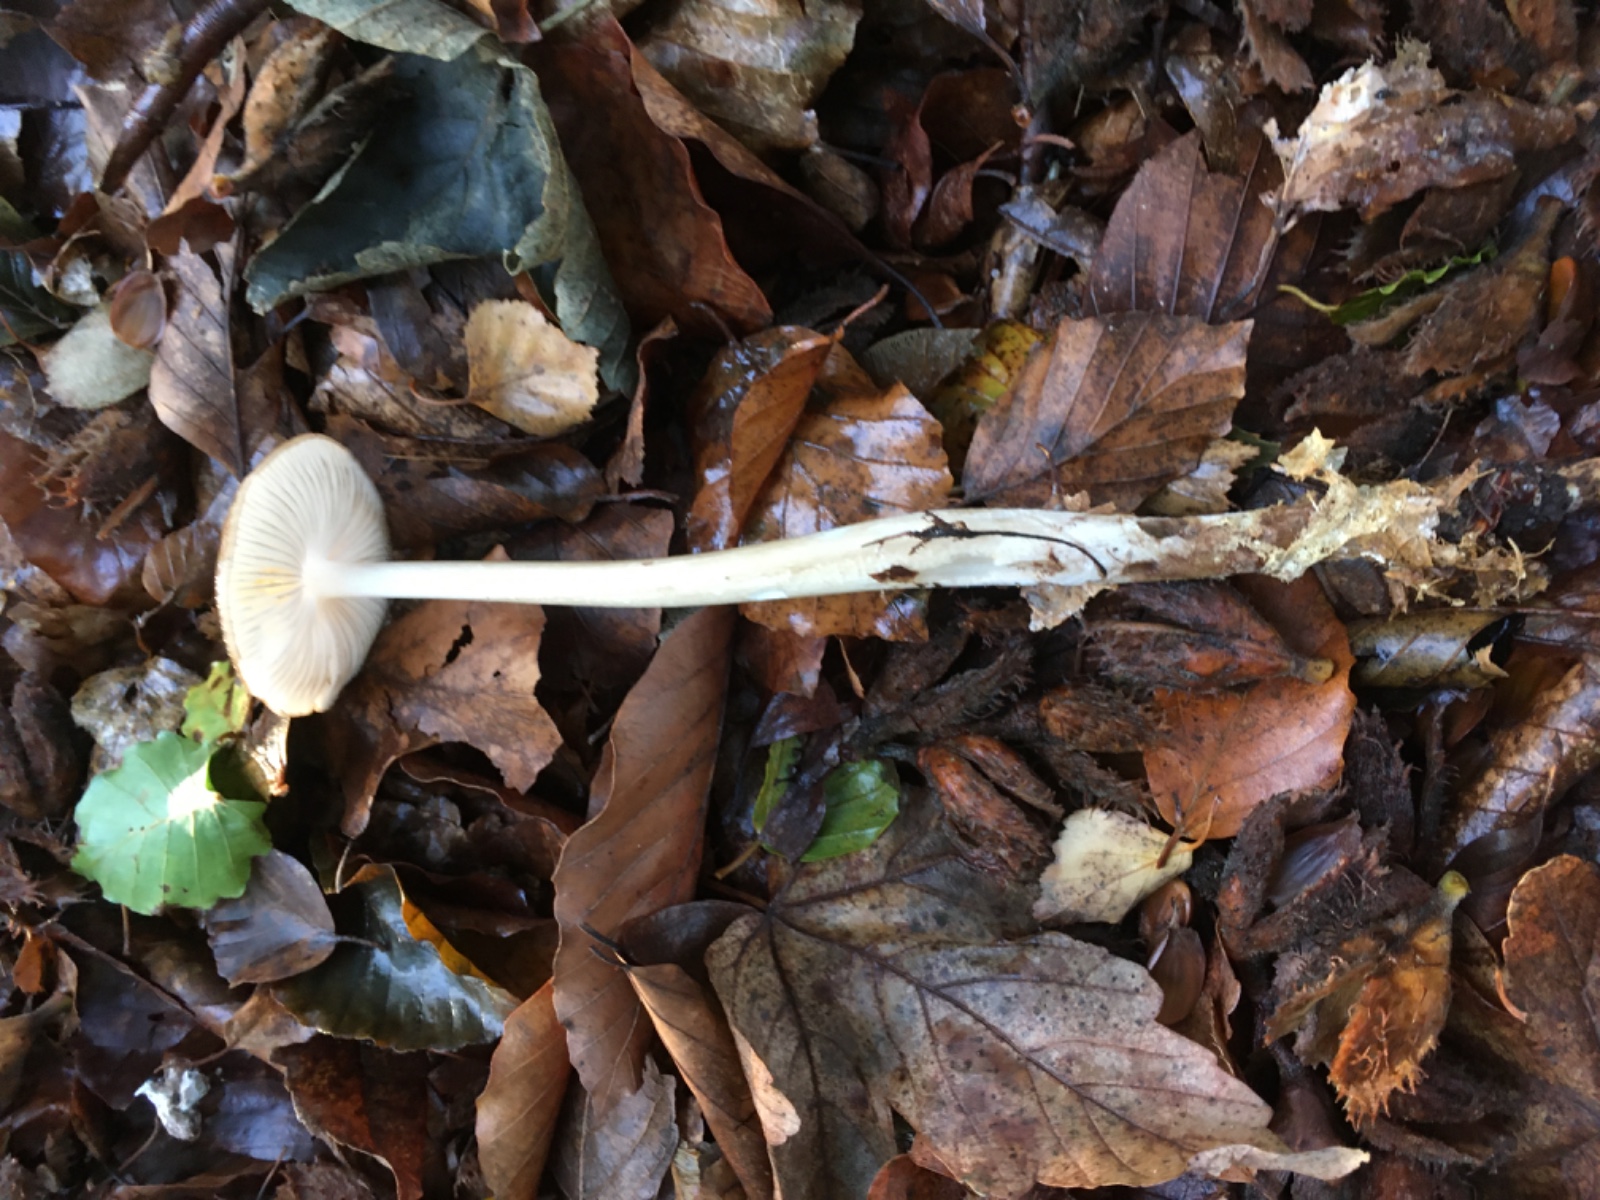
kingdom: Fungi
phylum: Basidiomycota
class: Agaricomycetes
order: Agaricales
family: Physalacriaceae
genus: Hymenopellis
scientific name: Hymenopellis radicata
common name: almindelig pælerodshat
